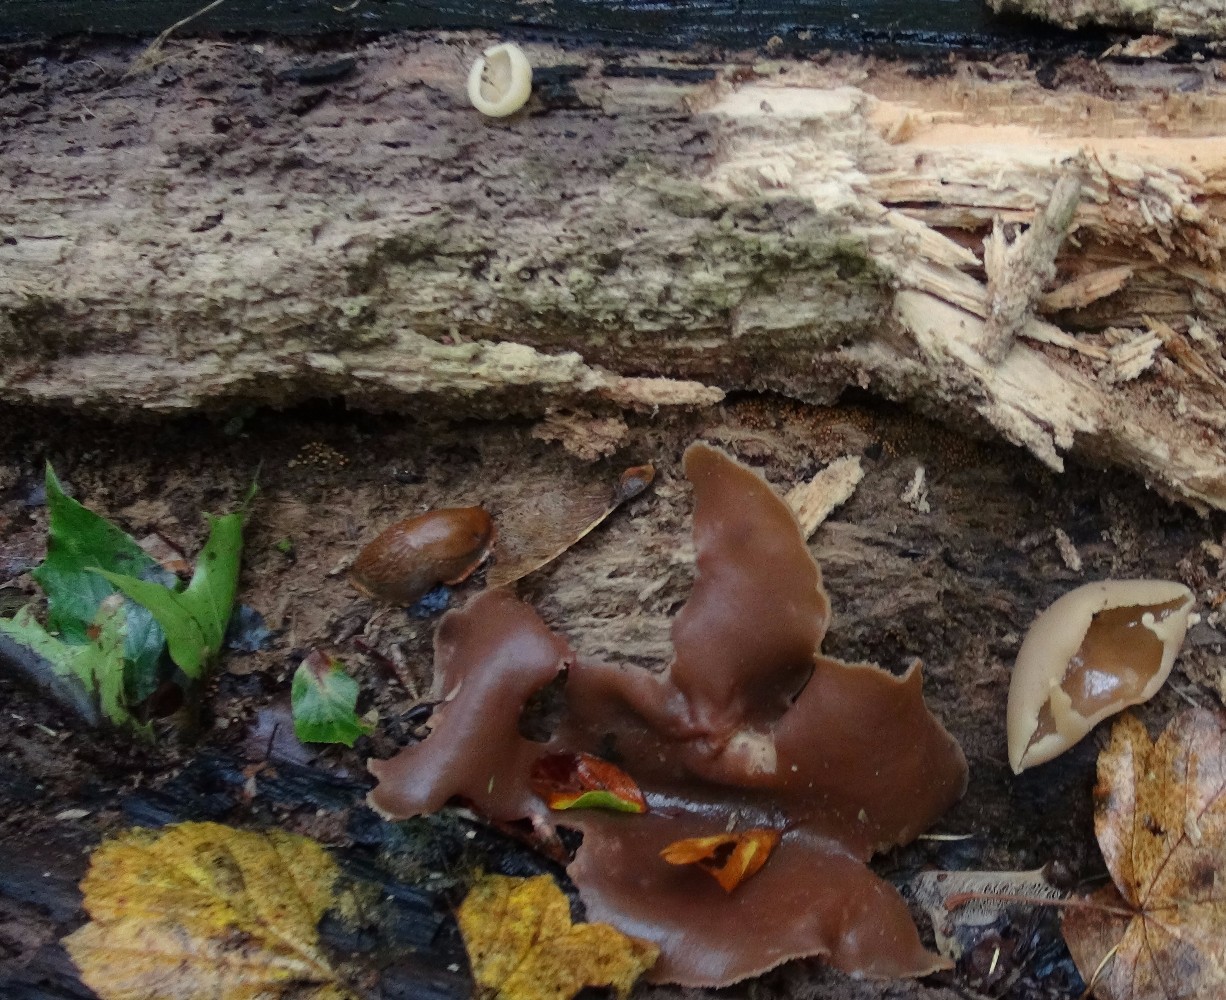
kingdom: Fungi
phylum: Ascomycota
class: Pezizomycetes
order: Pezizales
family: Pezizaceae
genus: Peziza
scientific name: Peziza varia
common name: Ved-bægersvamp
